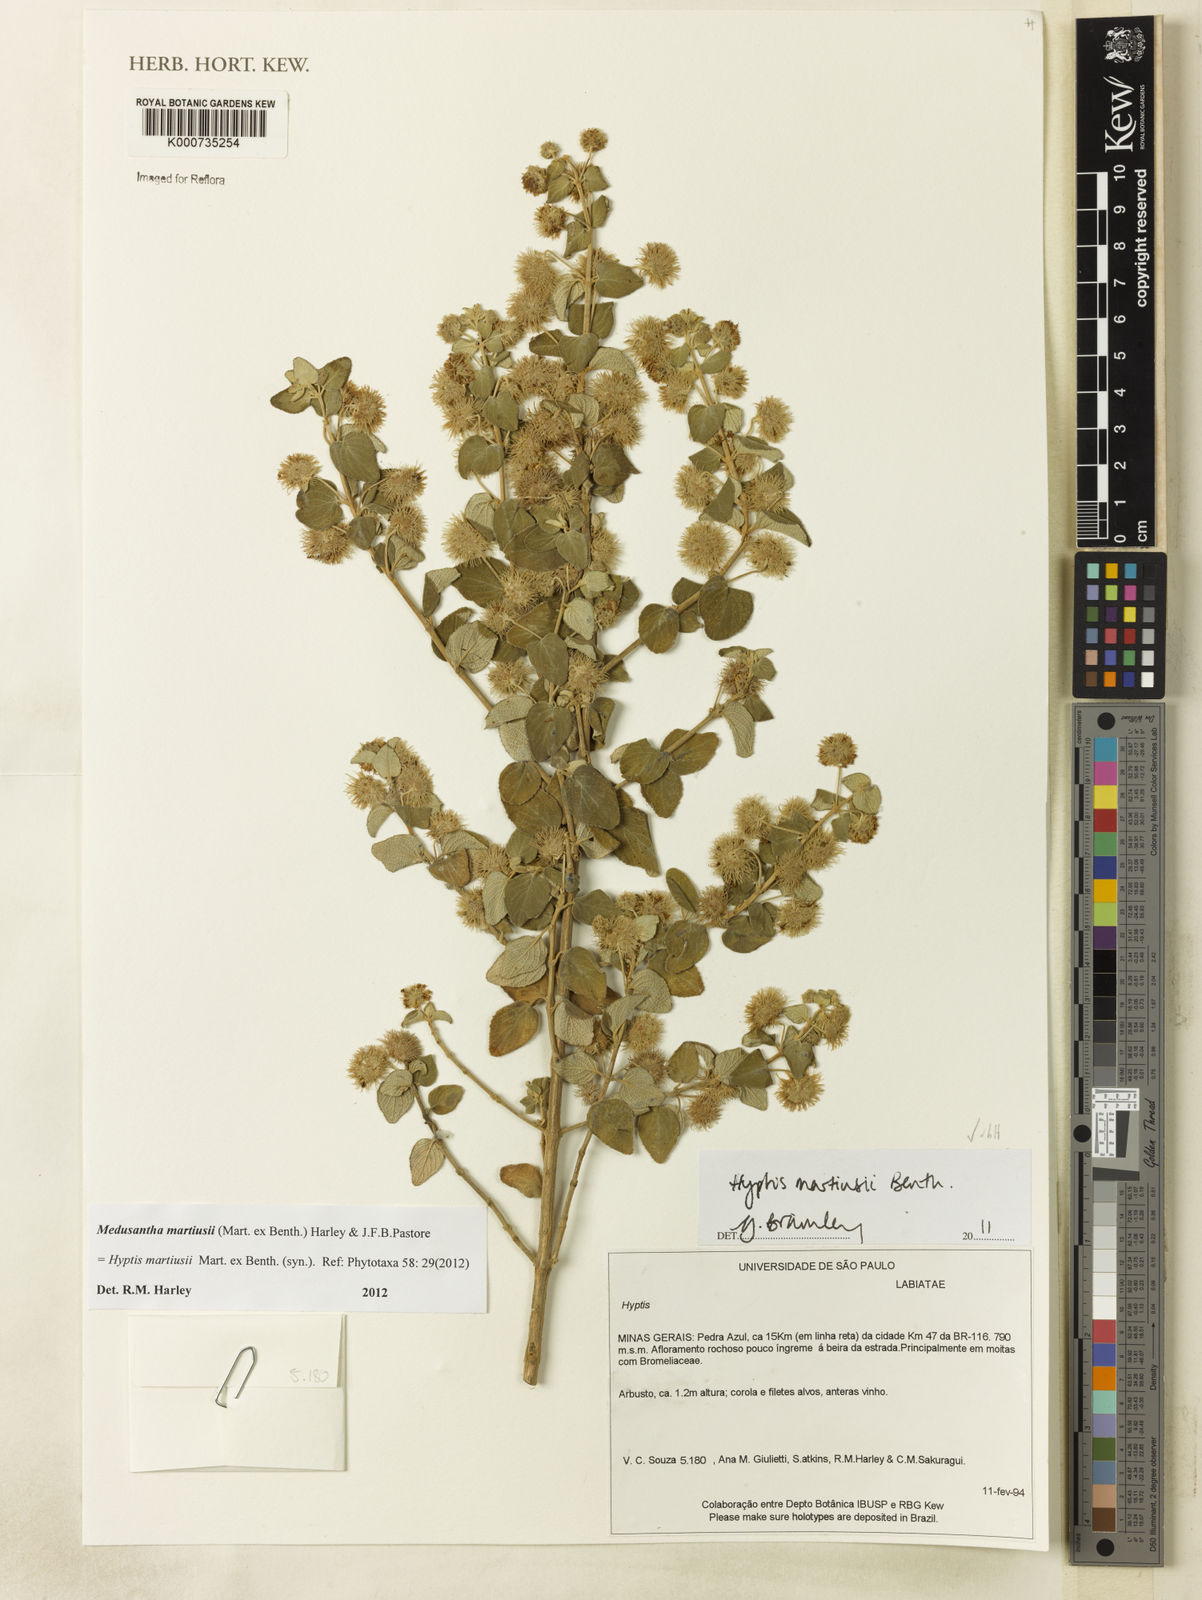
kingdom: Plantae
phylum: Tracheophyta
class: Magnoliopsida
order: Lamiales
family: Lamiaceae
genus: Medusantha
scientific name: Medusantha martiusii
